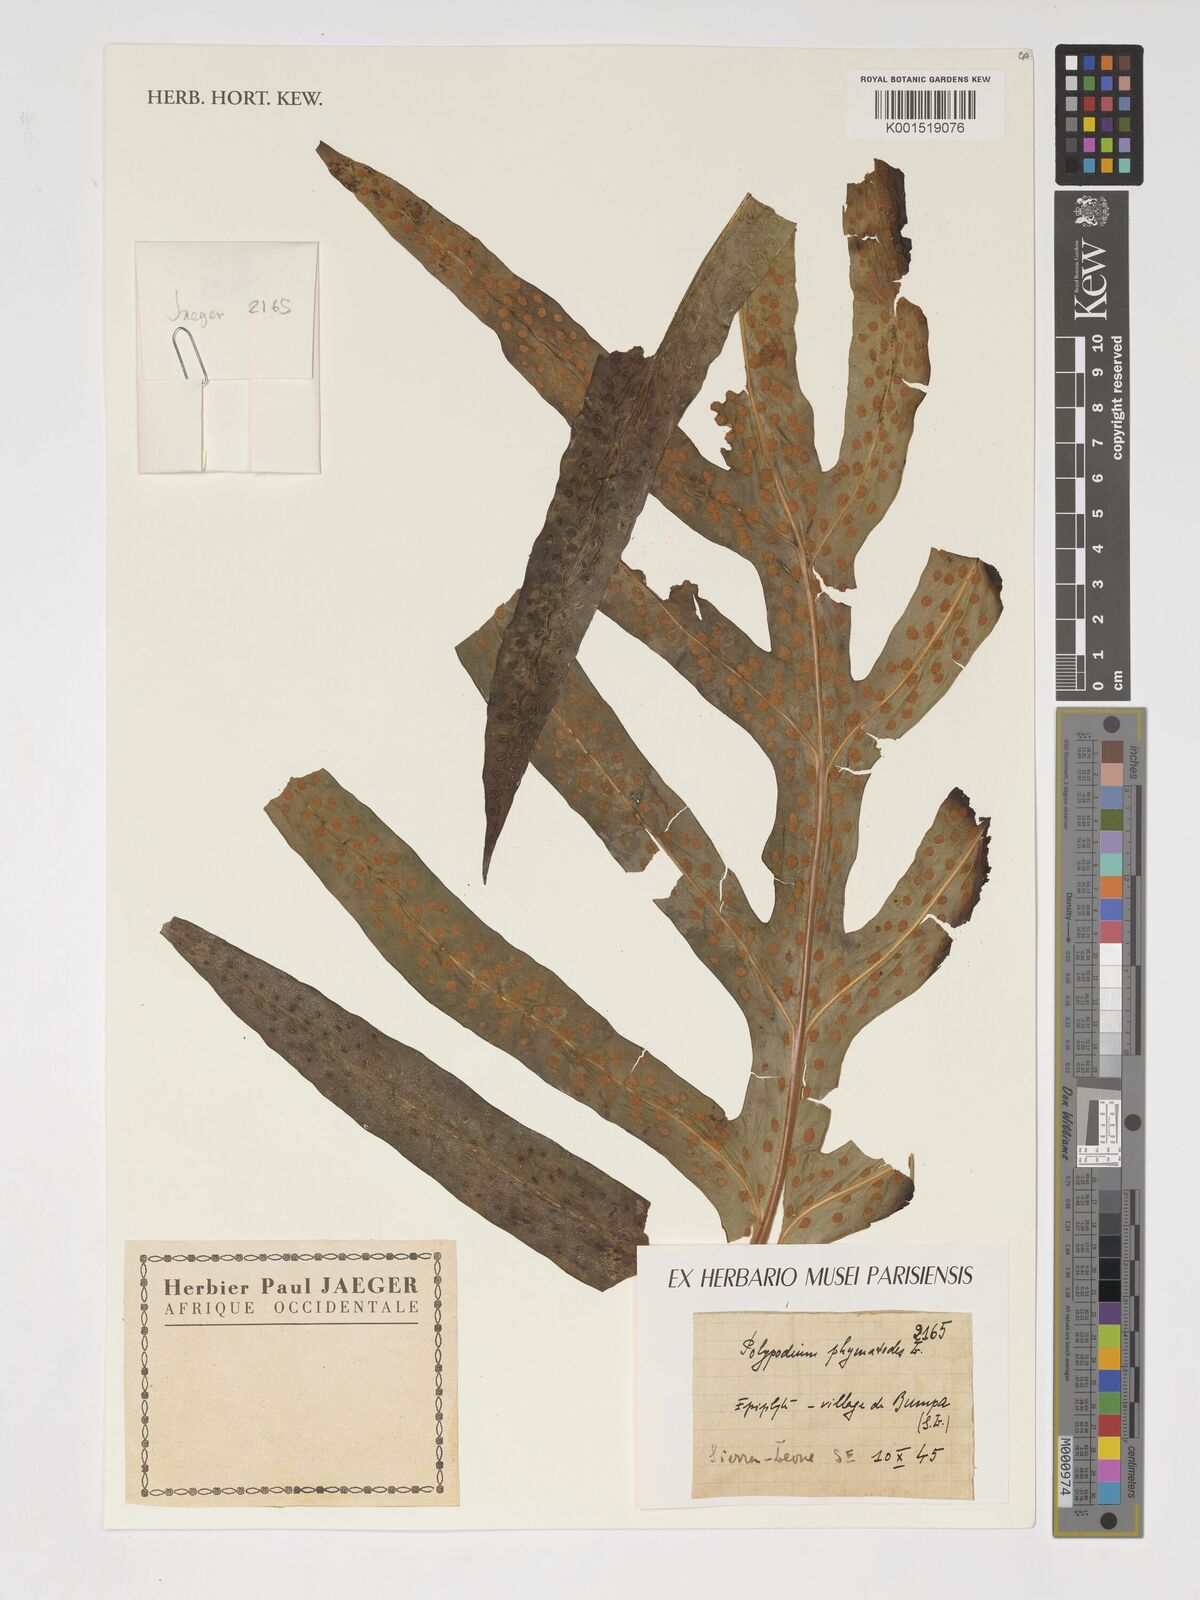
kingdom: Plantae
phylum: Tracheophyta
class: Polypodiopsida
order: Polypodiales
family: Polypodiaceae
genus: Microsorum
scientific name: Microsorum scolopendria
